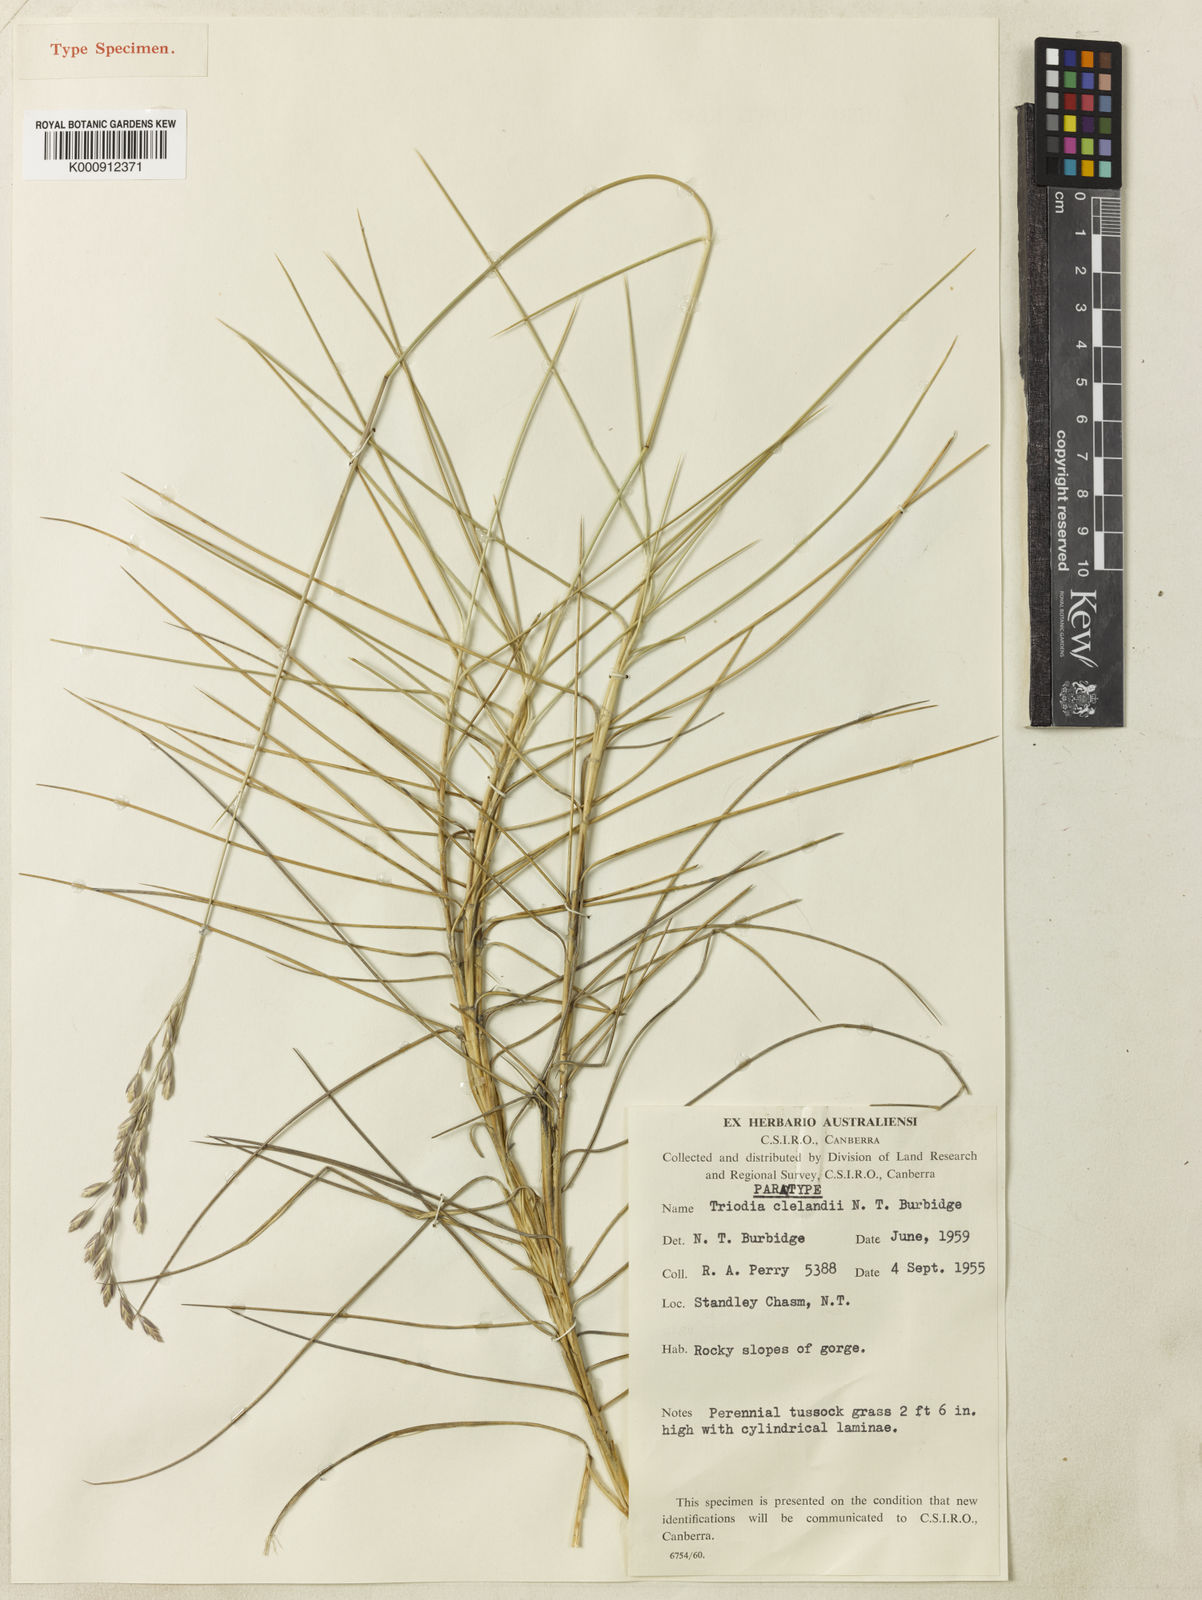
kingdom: Plantae
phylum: Tracheophyta
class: Liliopsida
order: Poales
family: Poaceae
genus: Triodia
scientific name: Triodia brizoides
